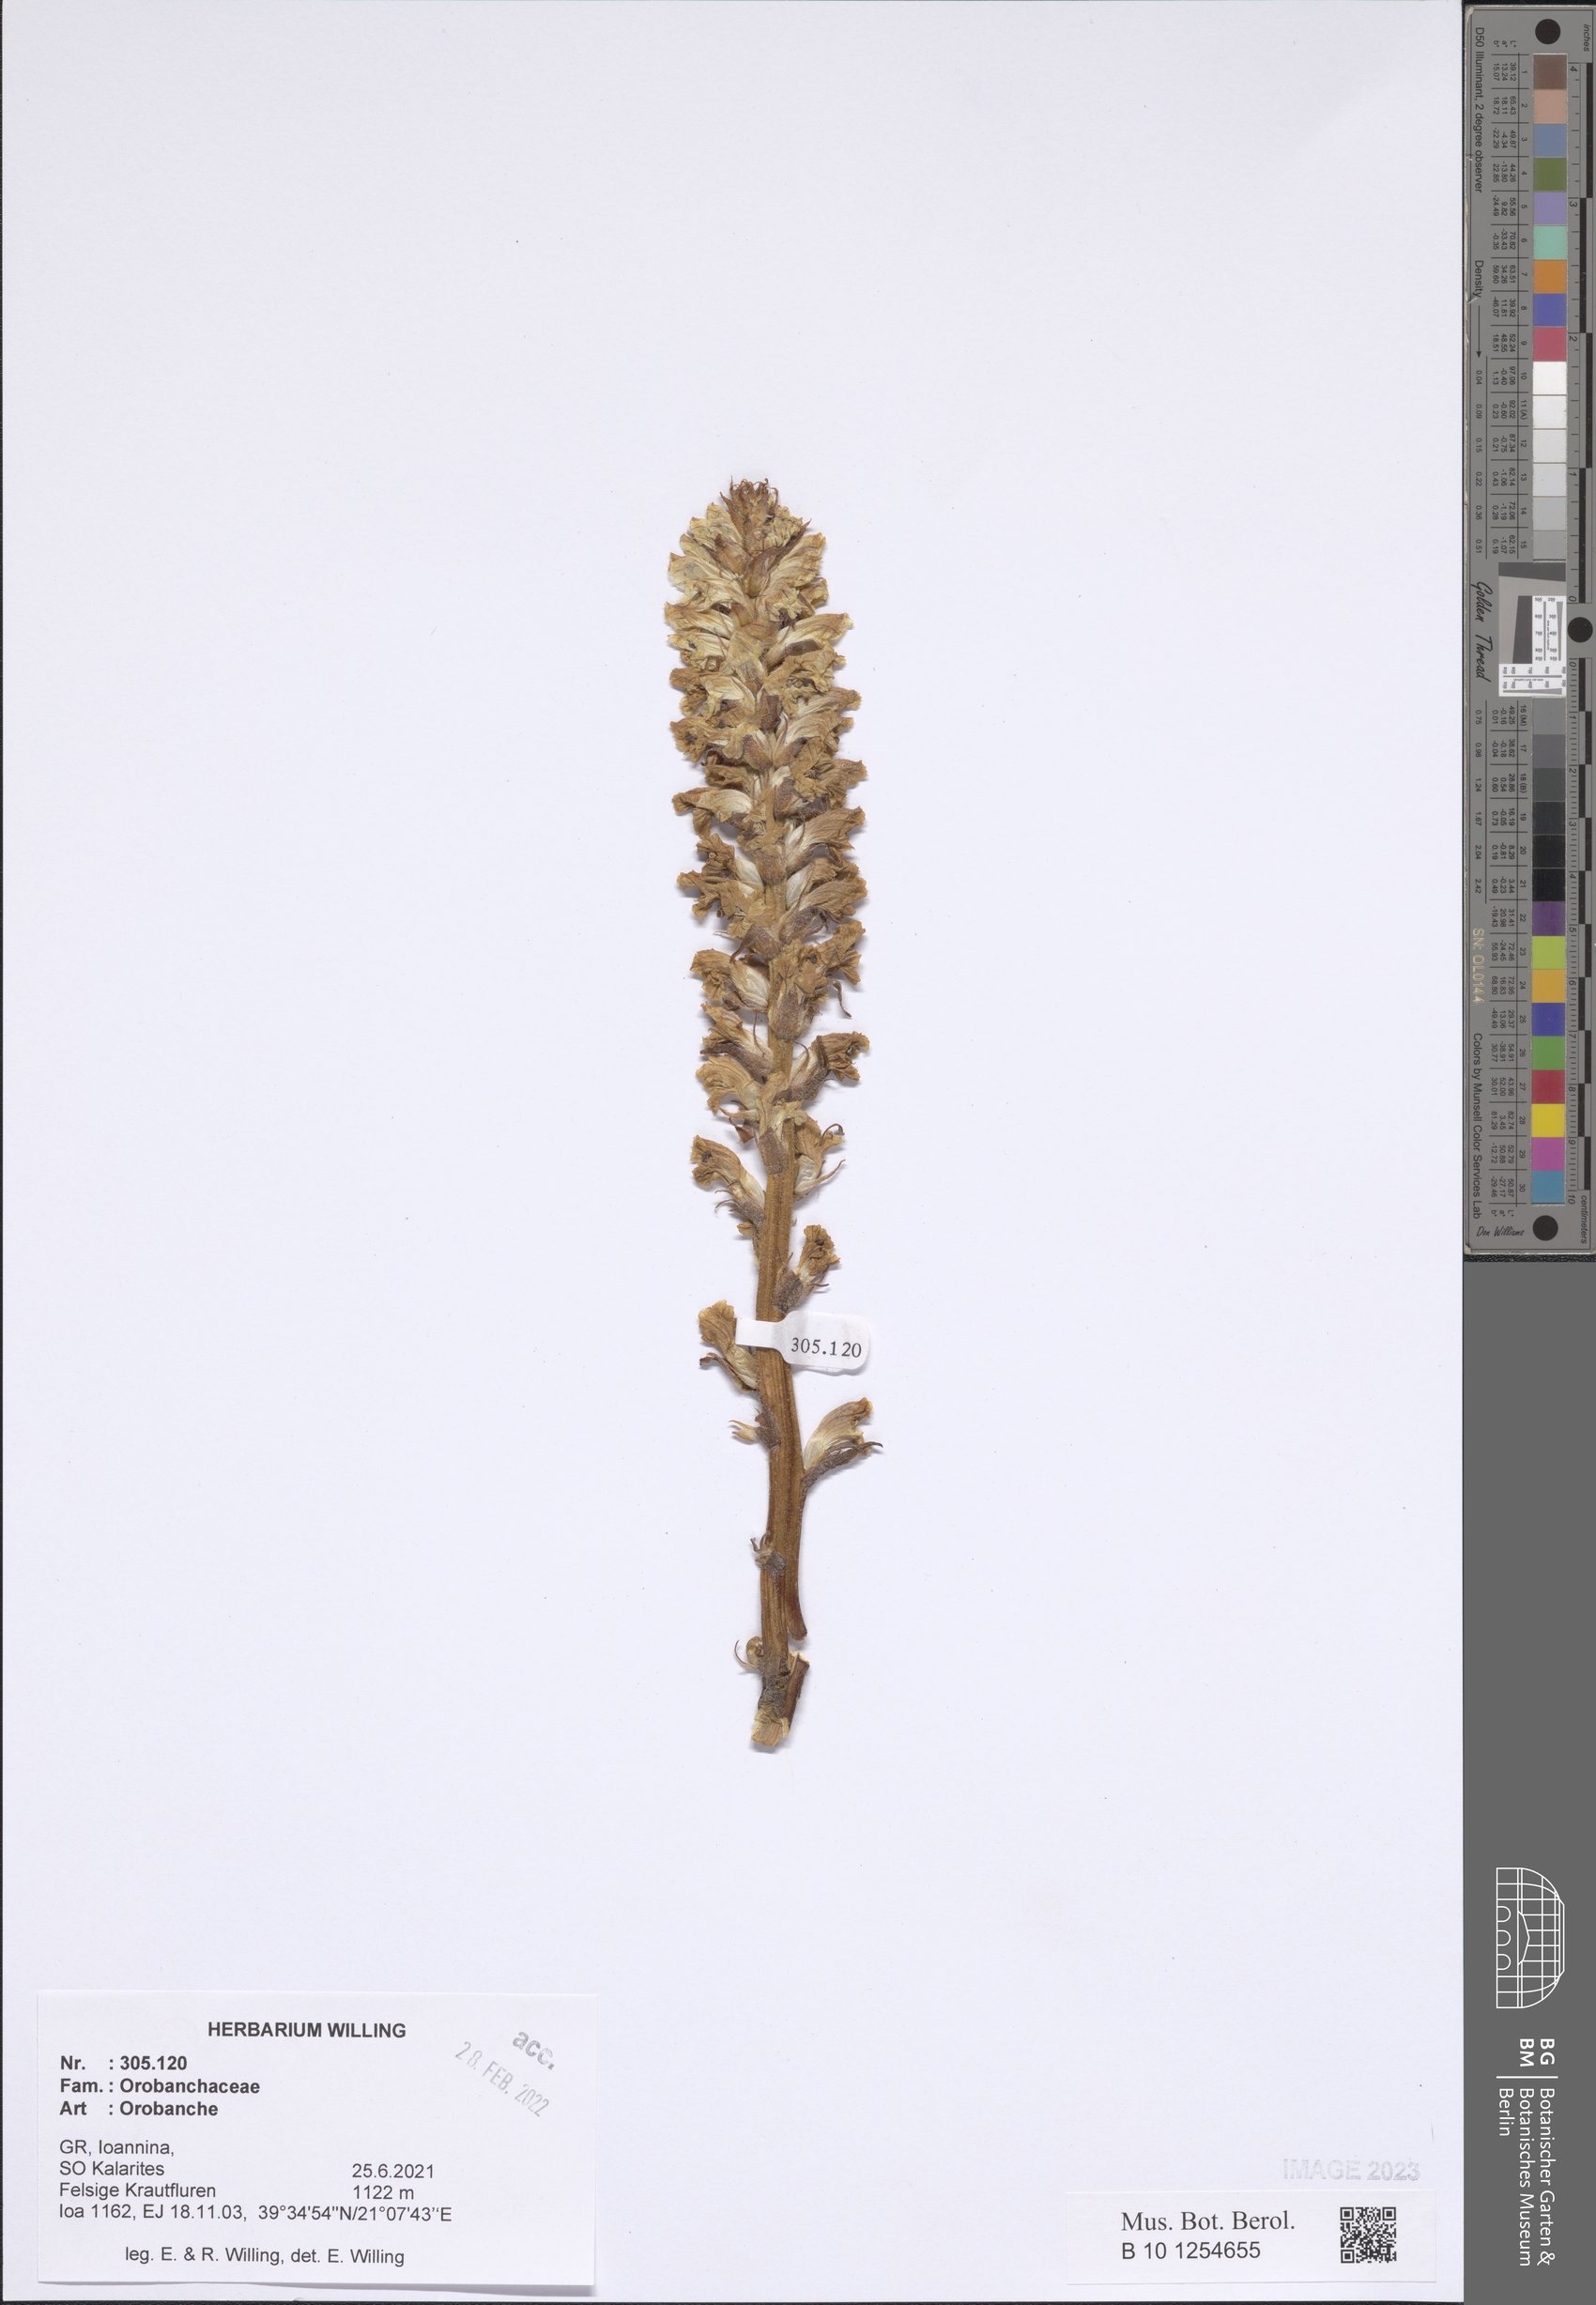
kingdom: Plantae
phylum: Tracheophyta
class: Magnoliopsida
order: Lamiales
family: Orobanchaceae
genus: Orobanche
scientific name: Orobanche
